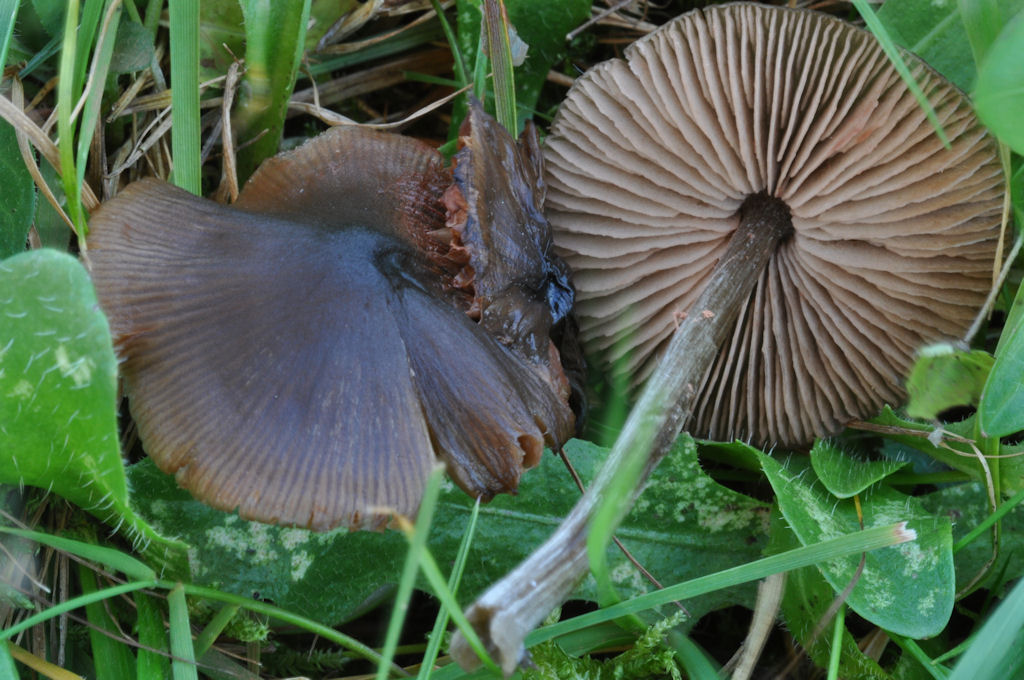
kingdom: Fungi
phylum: Basidiomycota
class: Agaricomycetes
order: Agaricales
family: Entolomataceae
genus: Entoloma
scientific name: Entoloma conferendum
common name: stjernesporet rødblad
